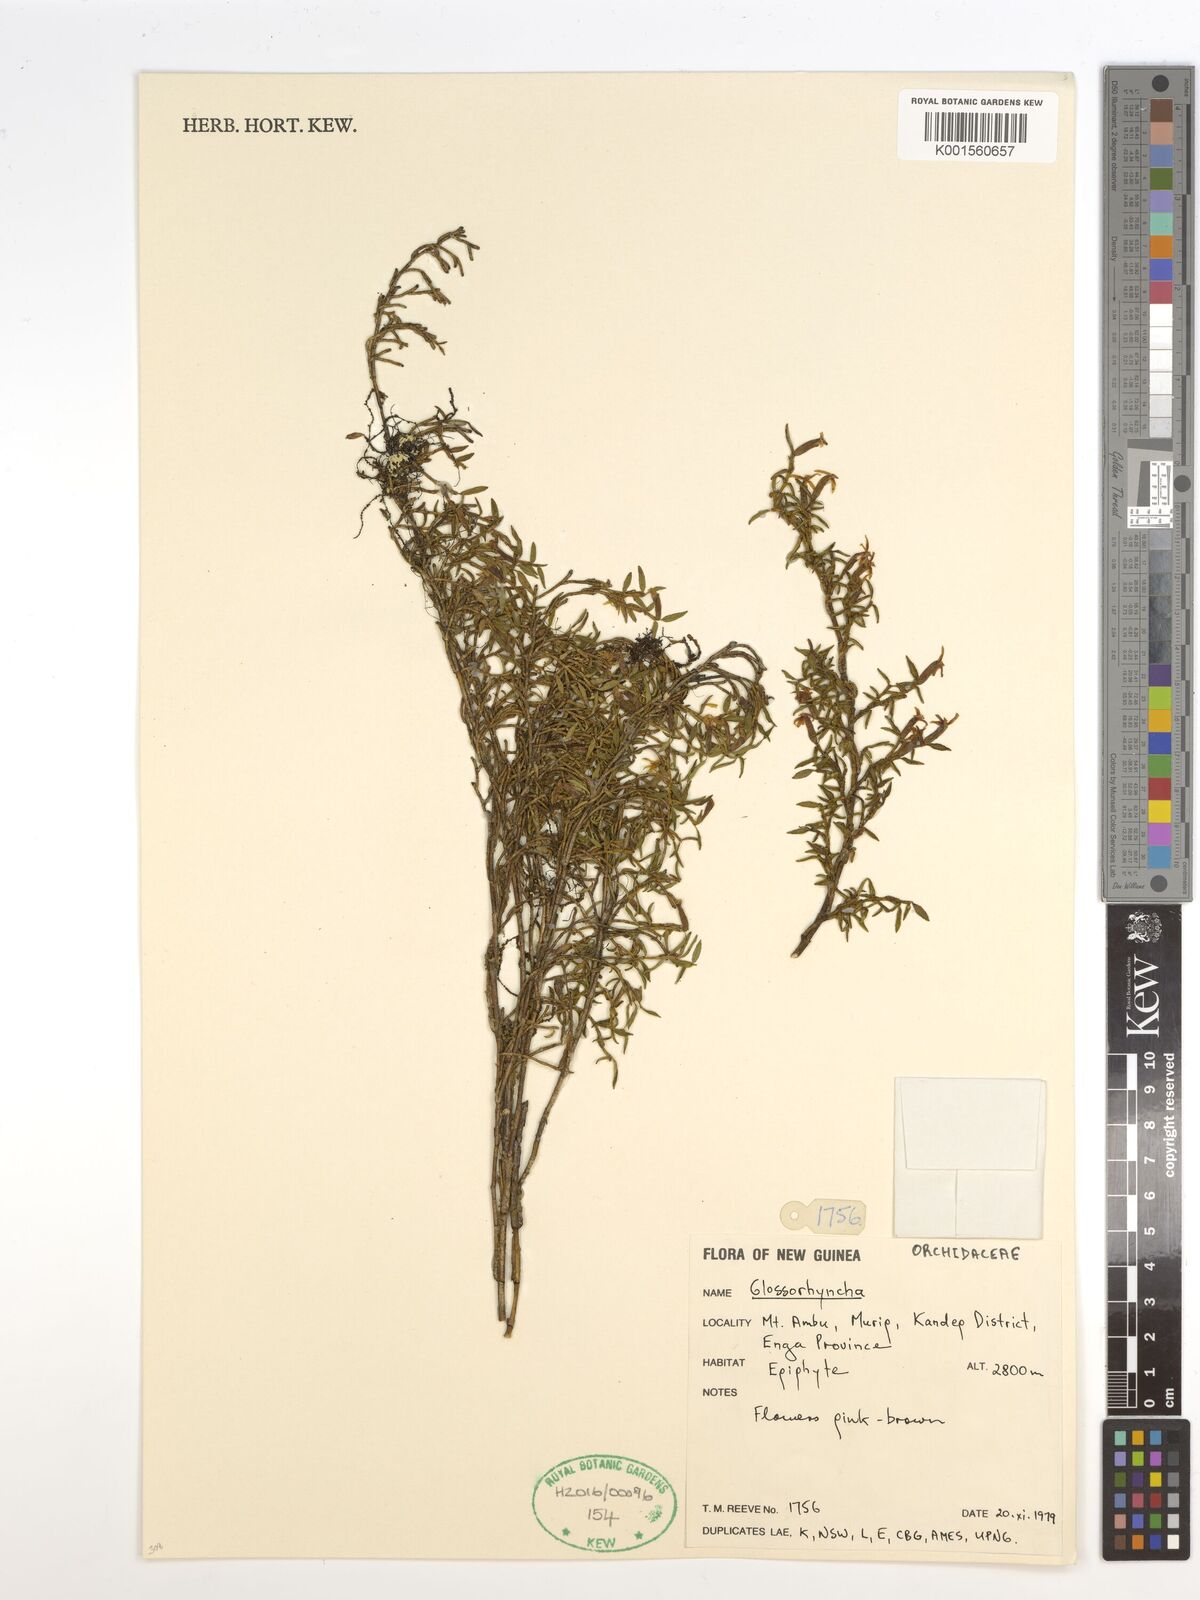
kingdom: Plantae
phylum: Tracheophyta
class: Liliopsida
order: Asparagales
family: Orchidaceae
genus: Glomera
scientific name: Glomera
